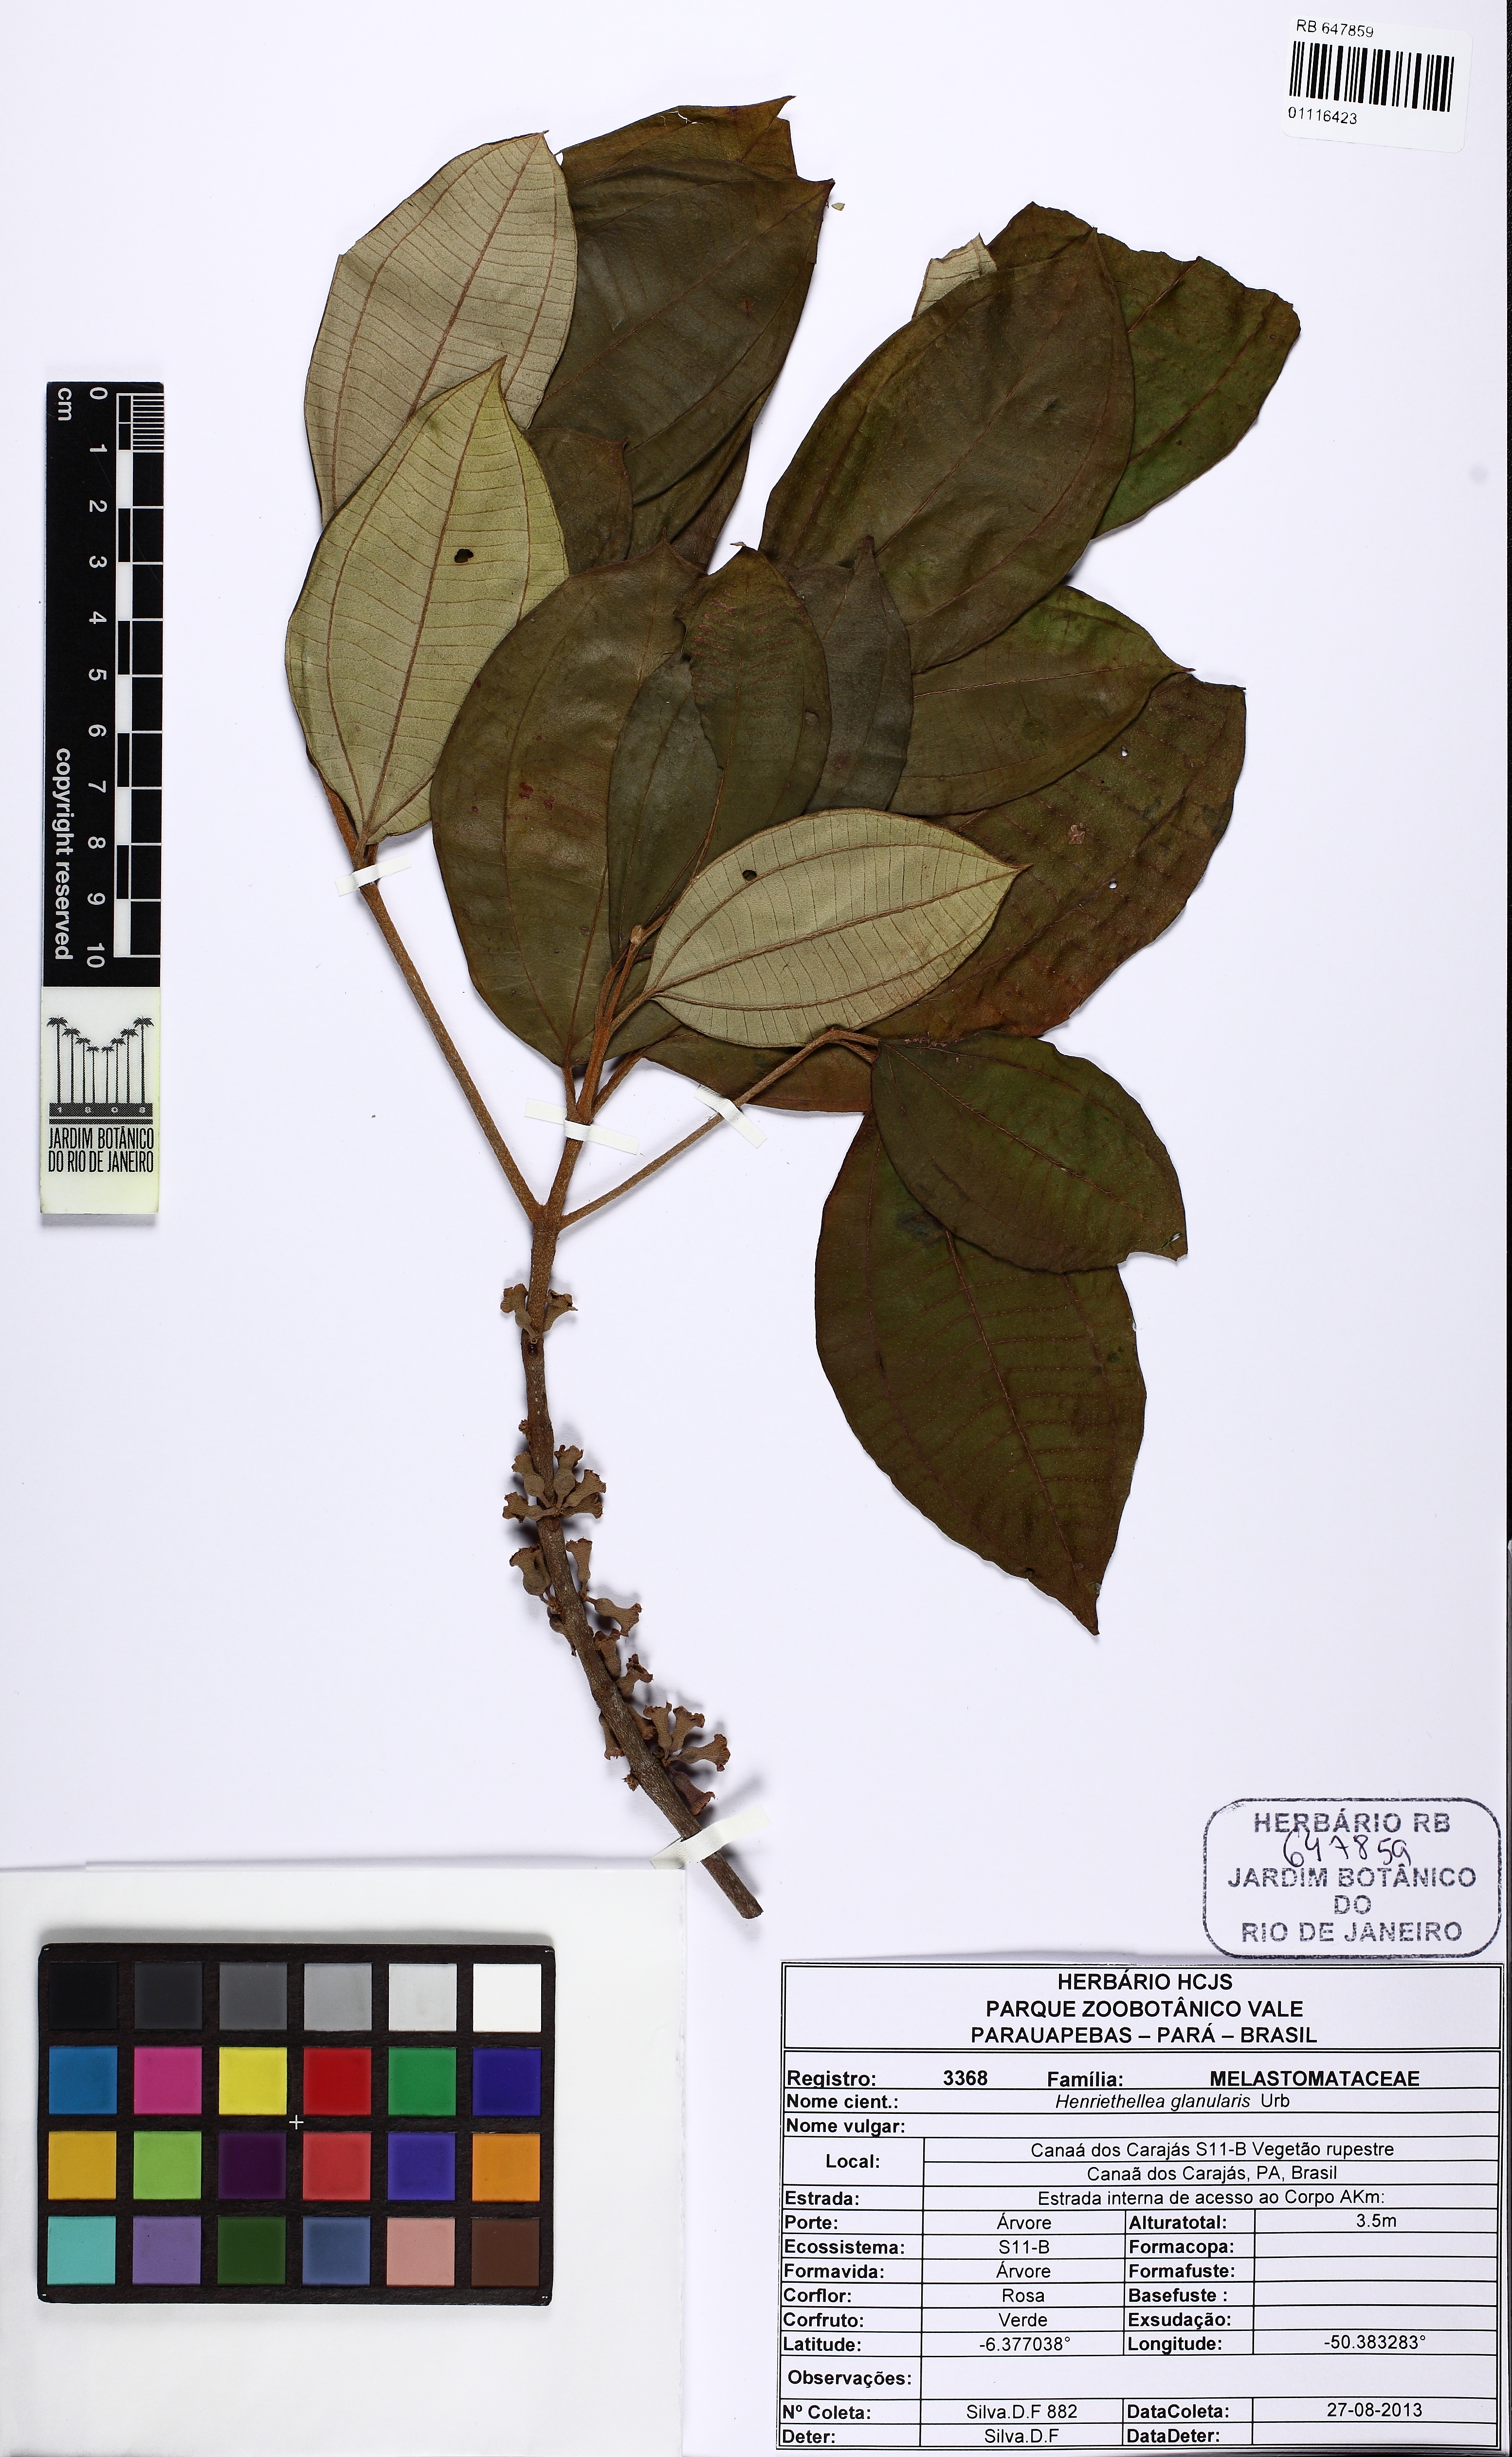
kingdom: Plantae
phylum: Tracheophyta
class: Magnoliopsida
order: Myrtales
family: Melastomataceae
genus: Henriettea
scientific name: Henriettea ramiflora
